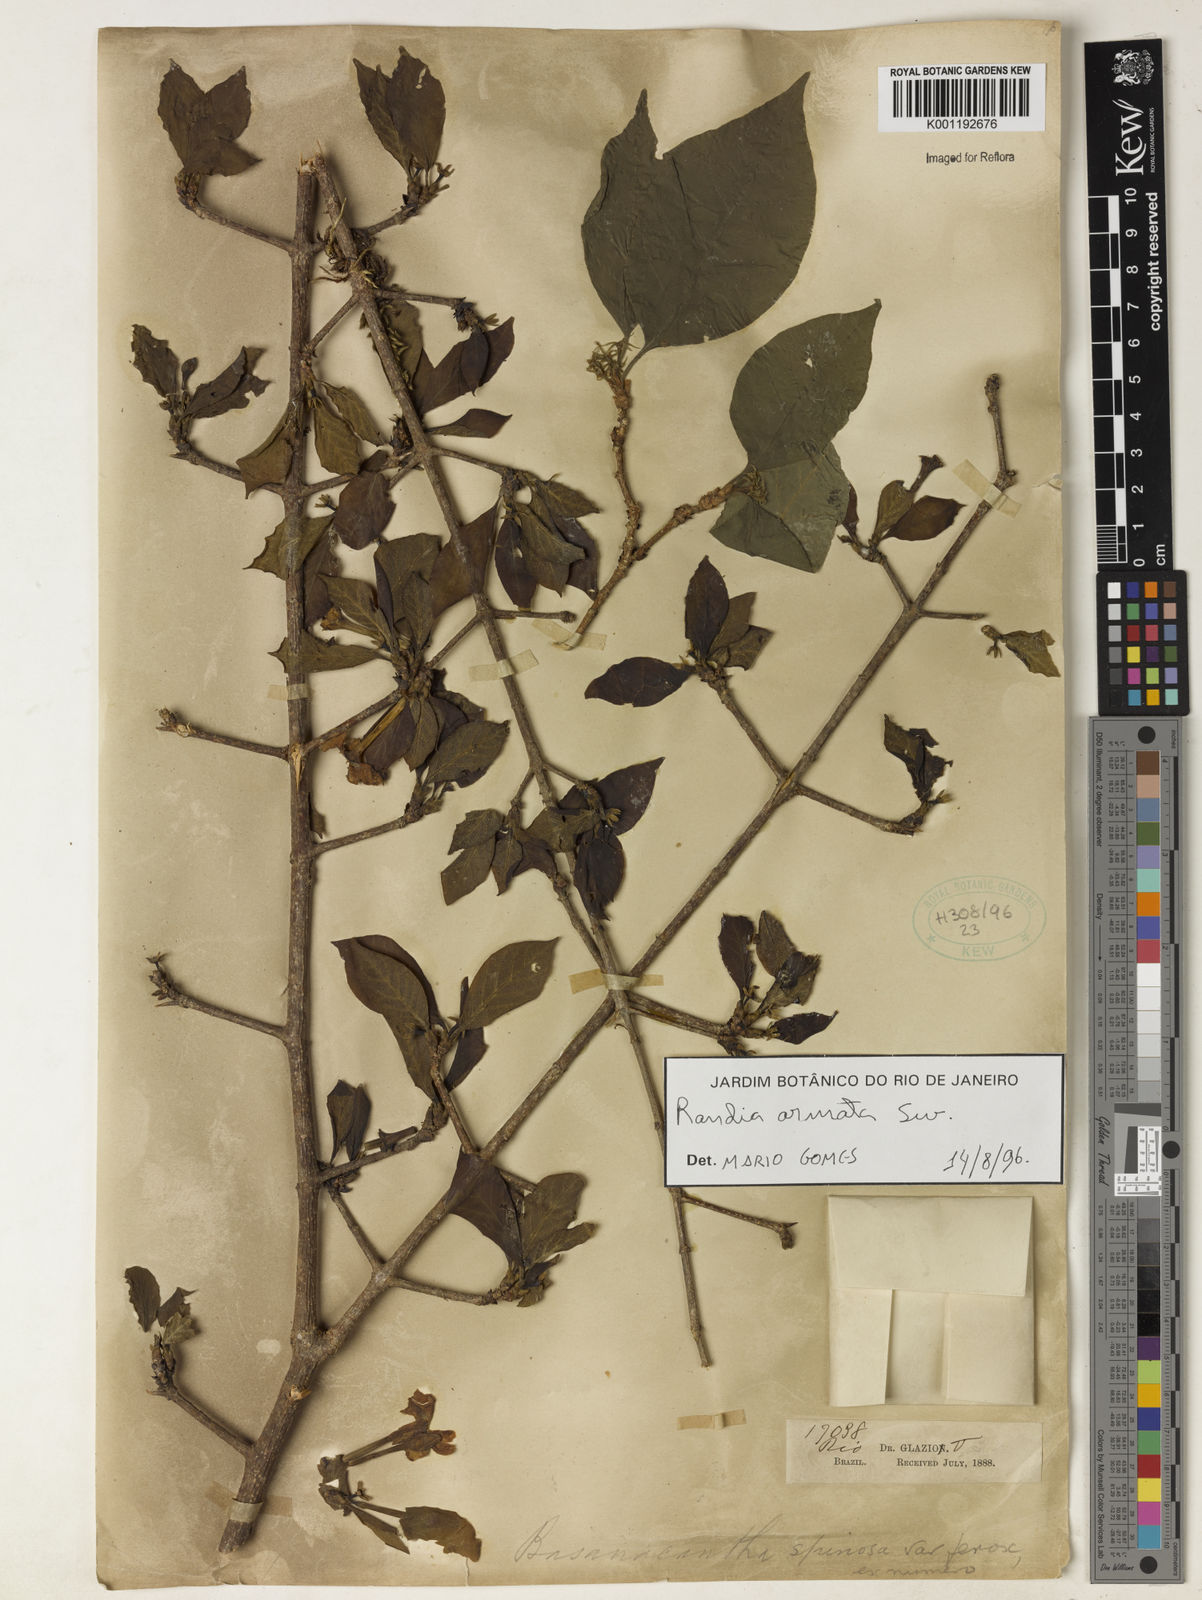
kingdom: Plantae
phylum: Tracheophyta
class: Magnoliopsida
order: Gentianales
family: Rubiaceae
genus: Randia
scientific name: Randia armata
